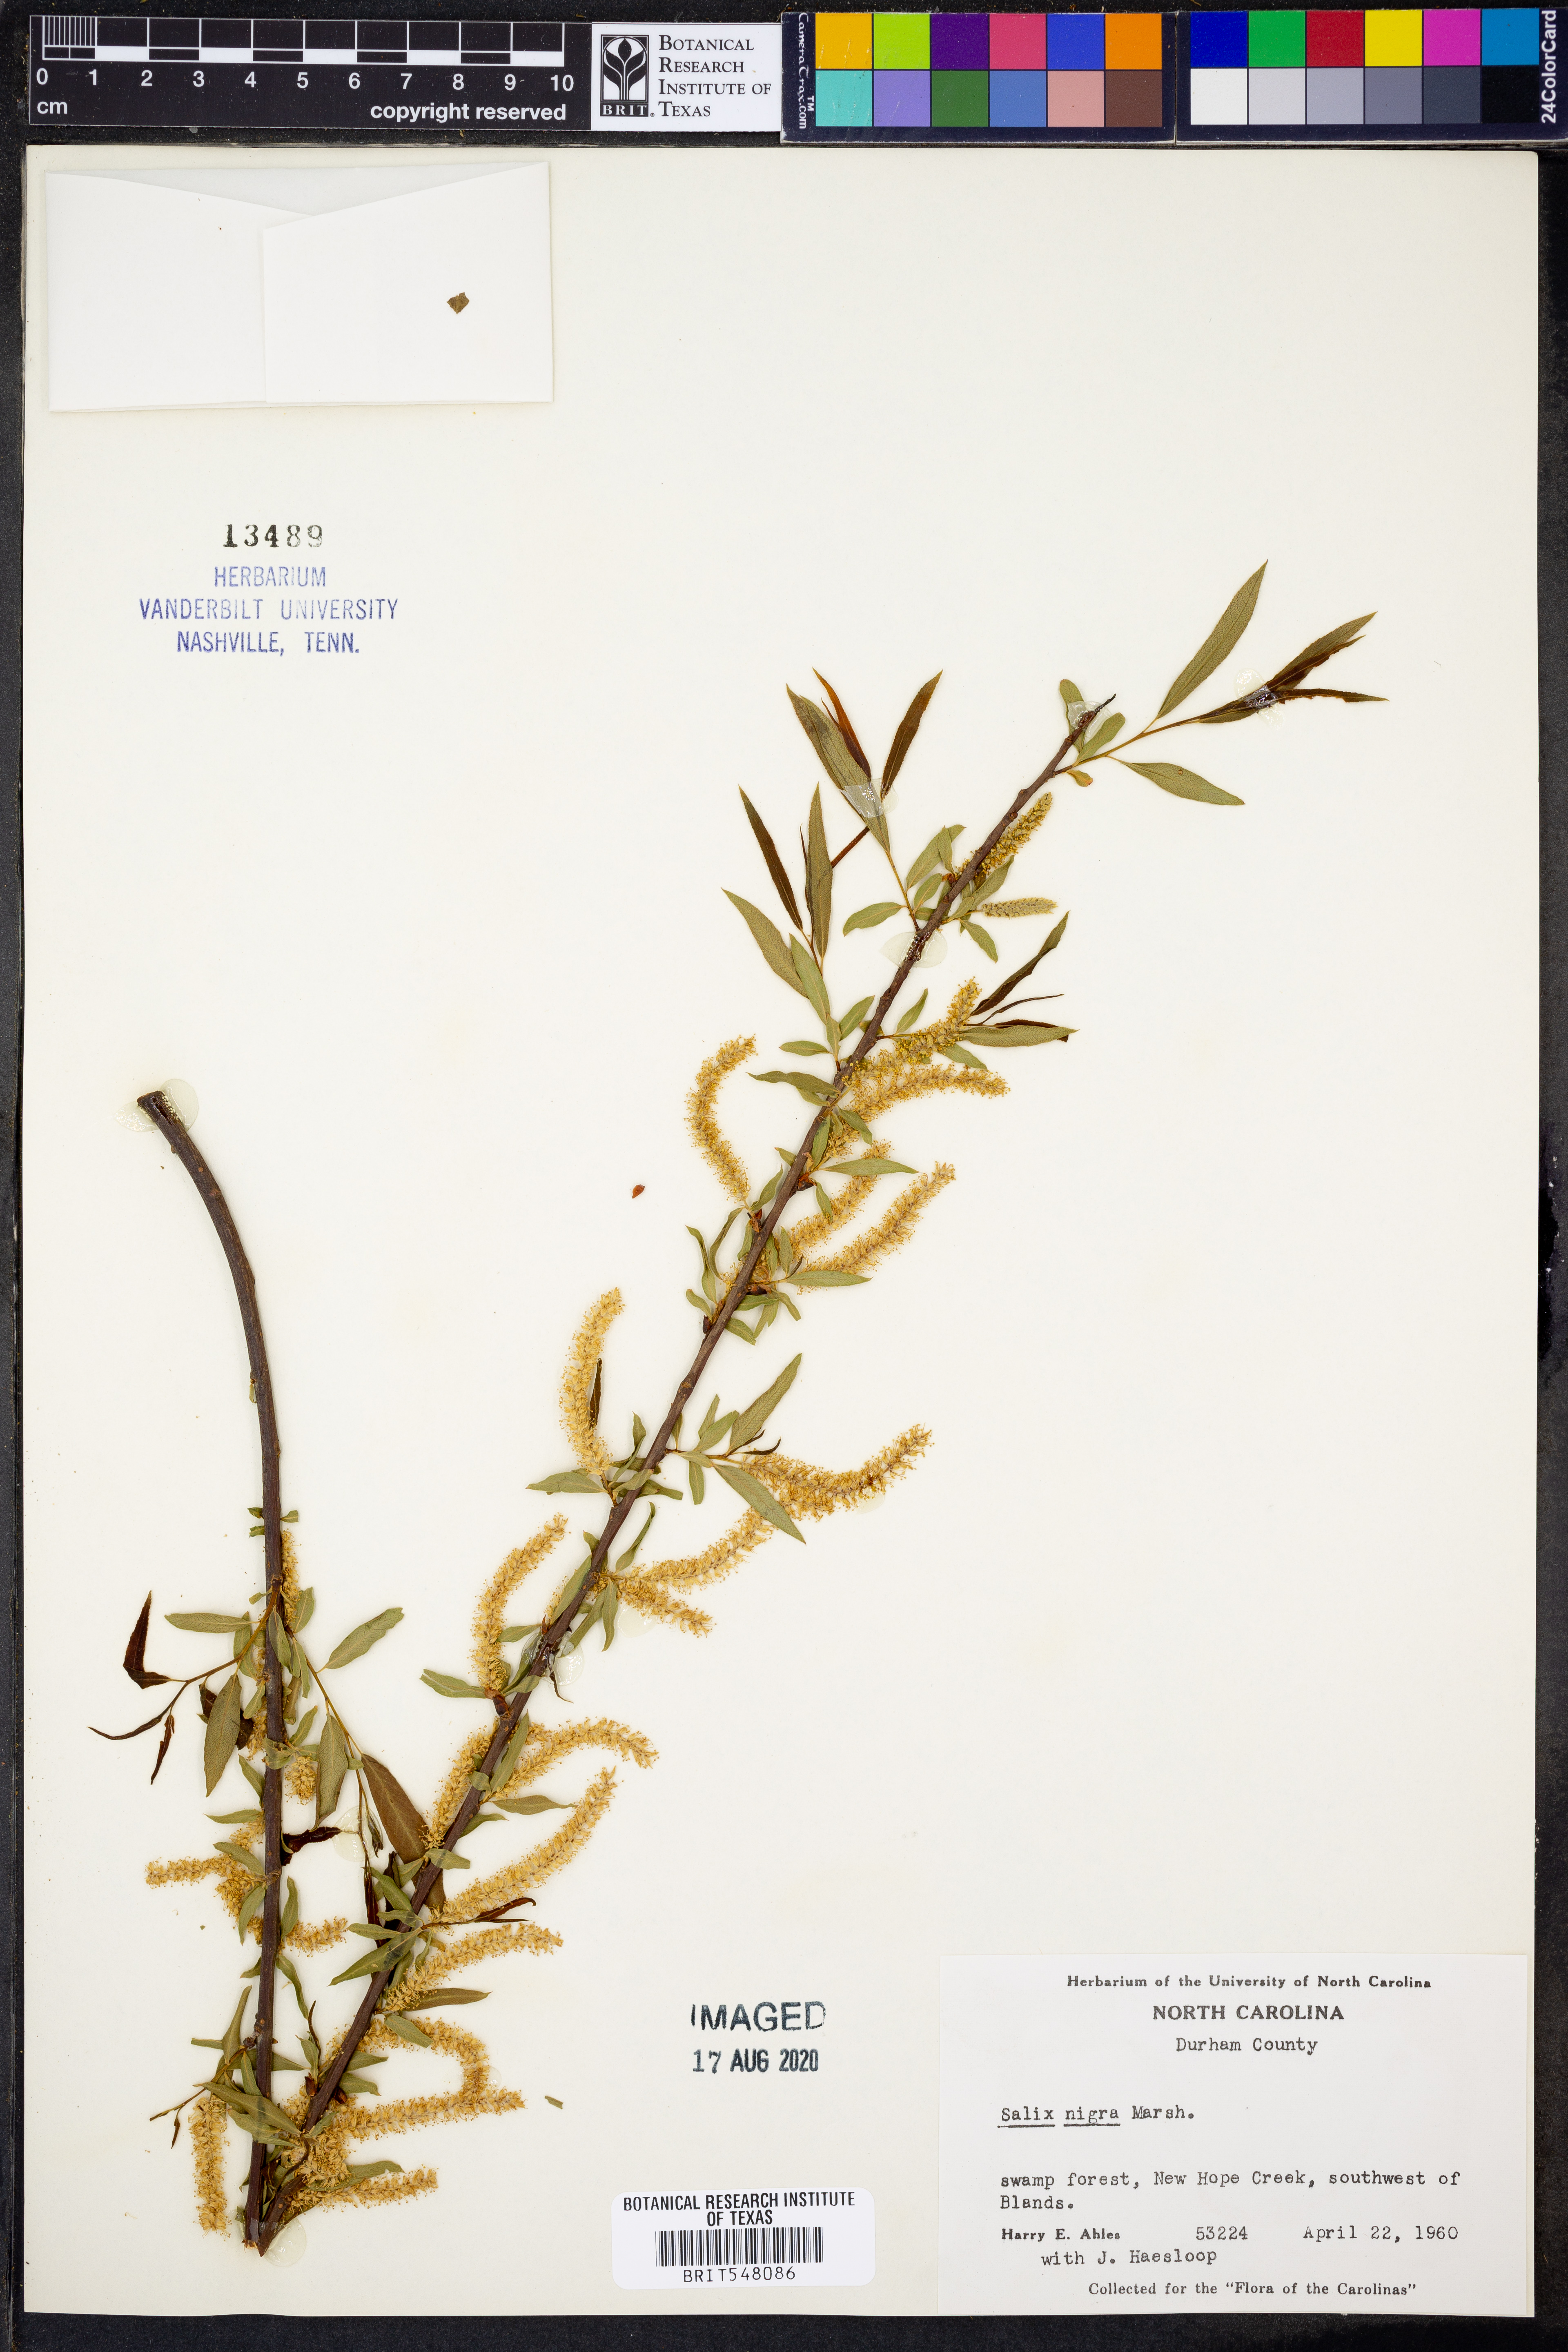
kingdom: Plantae
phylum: Tracheophyta
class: Magnoliopsida
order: Malpighiales
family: Salicaceae
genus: Salix
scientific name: Salix nigra
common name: Black willow
